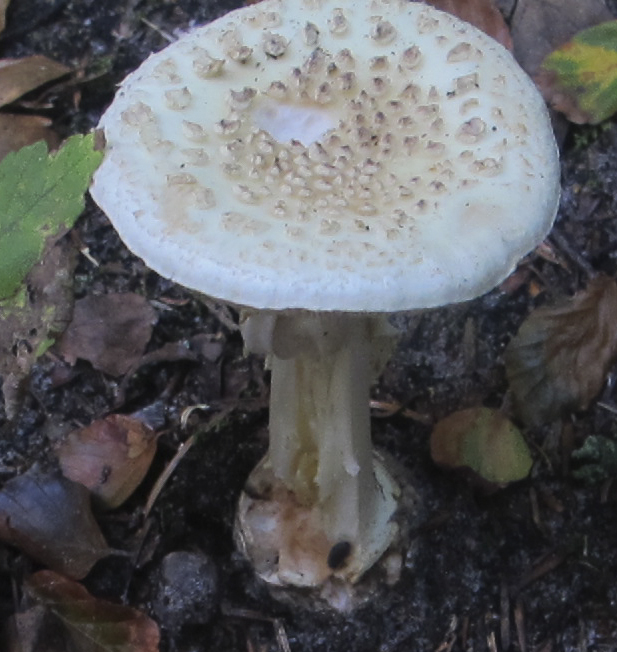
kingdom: Fungi
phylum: Basidiomycota
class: Agaricomycetes
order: Agaricales
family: Amanitaceae
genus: Amanita
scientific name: Amanita citrina
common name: kugleknoldet fluesvamp
